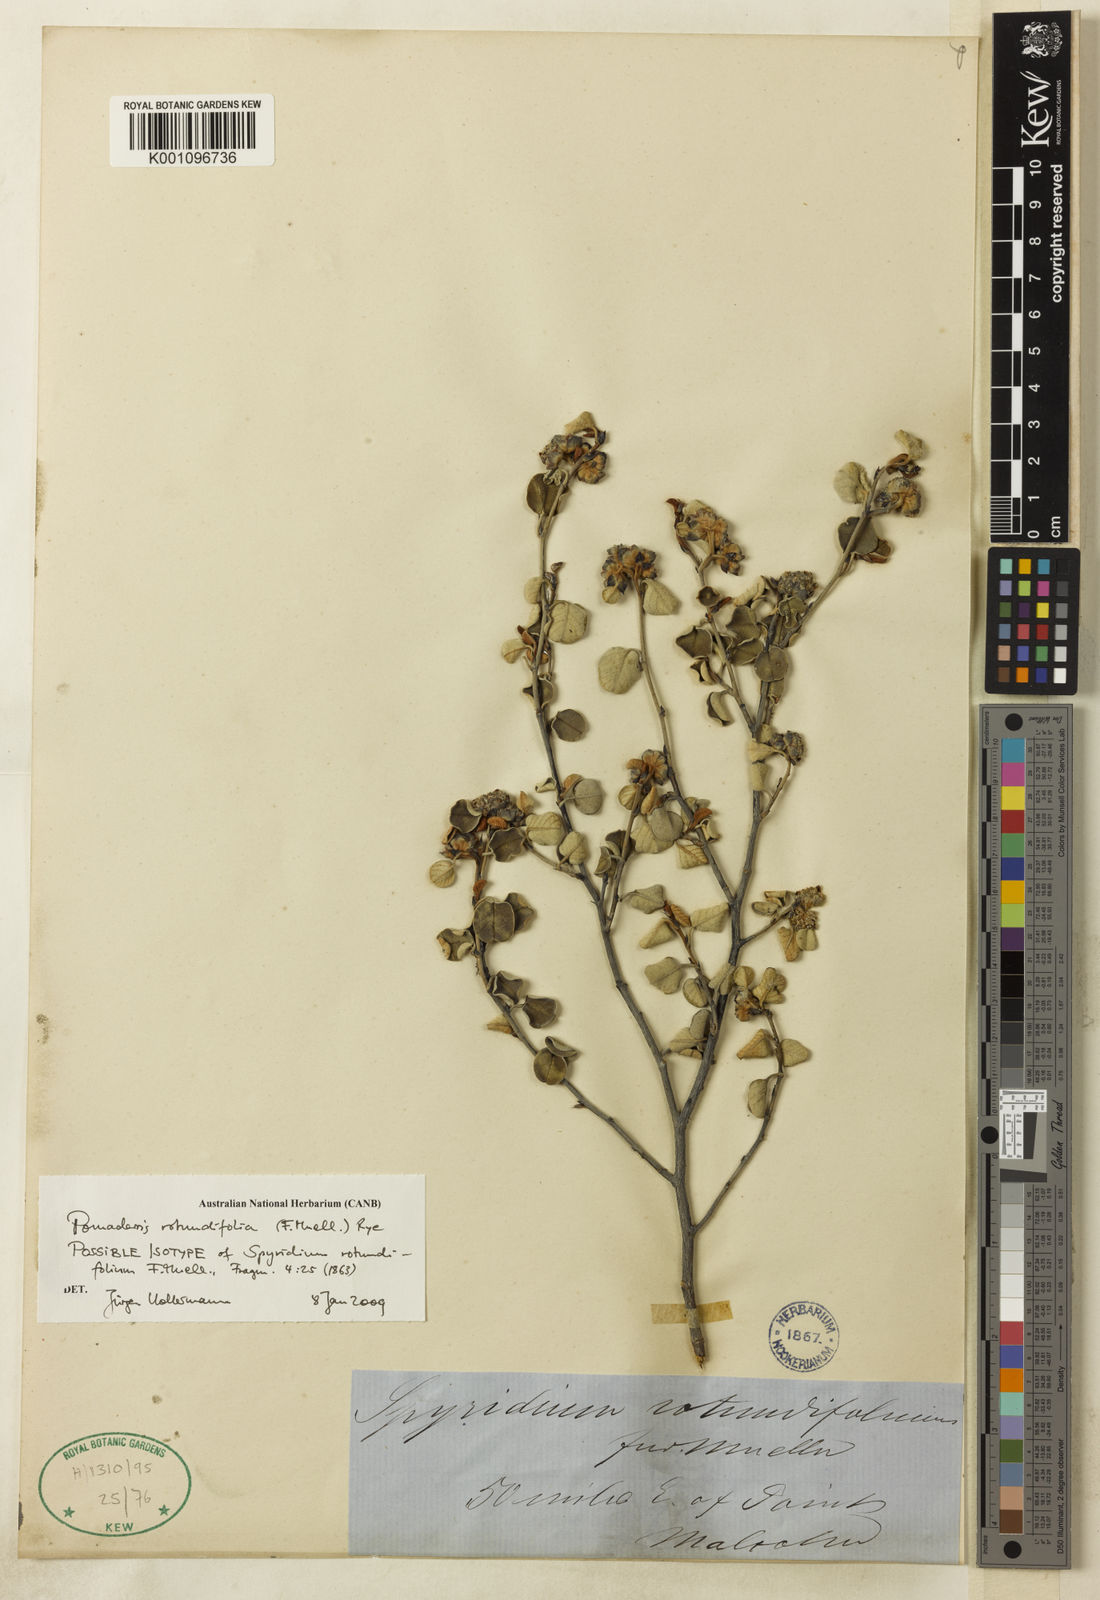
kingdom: Plantae
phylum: Tracheophyta
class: Magnoliopsida
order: Rosales
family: Rhamnaceae
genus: Pomaderris
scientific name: Pomaderris rotundifolia
